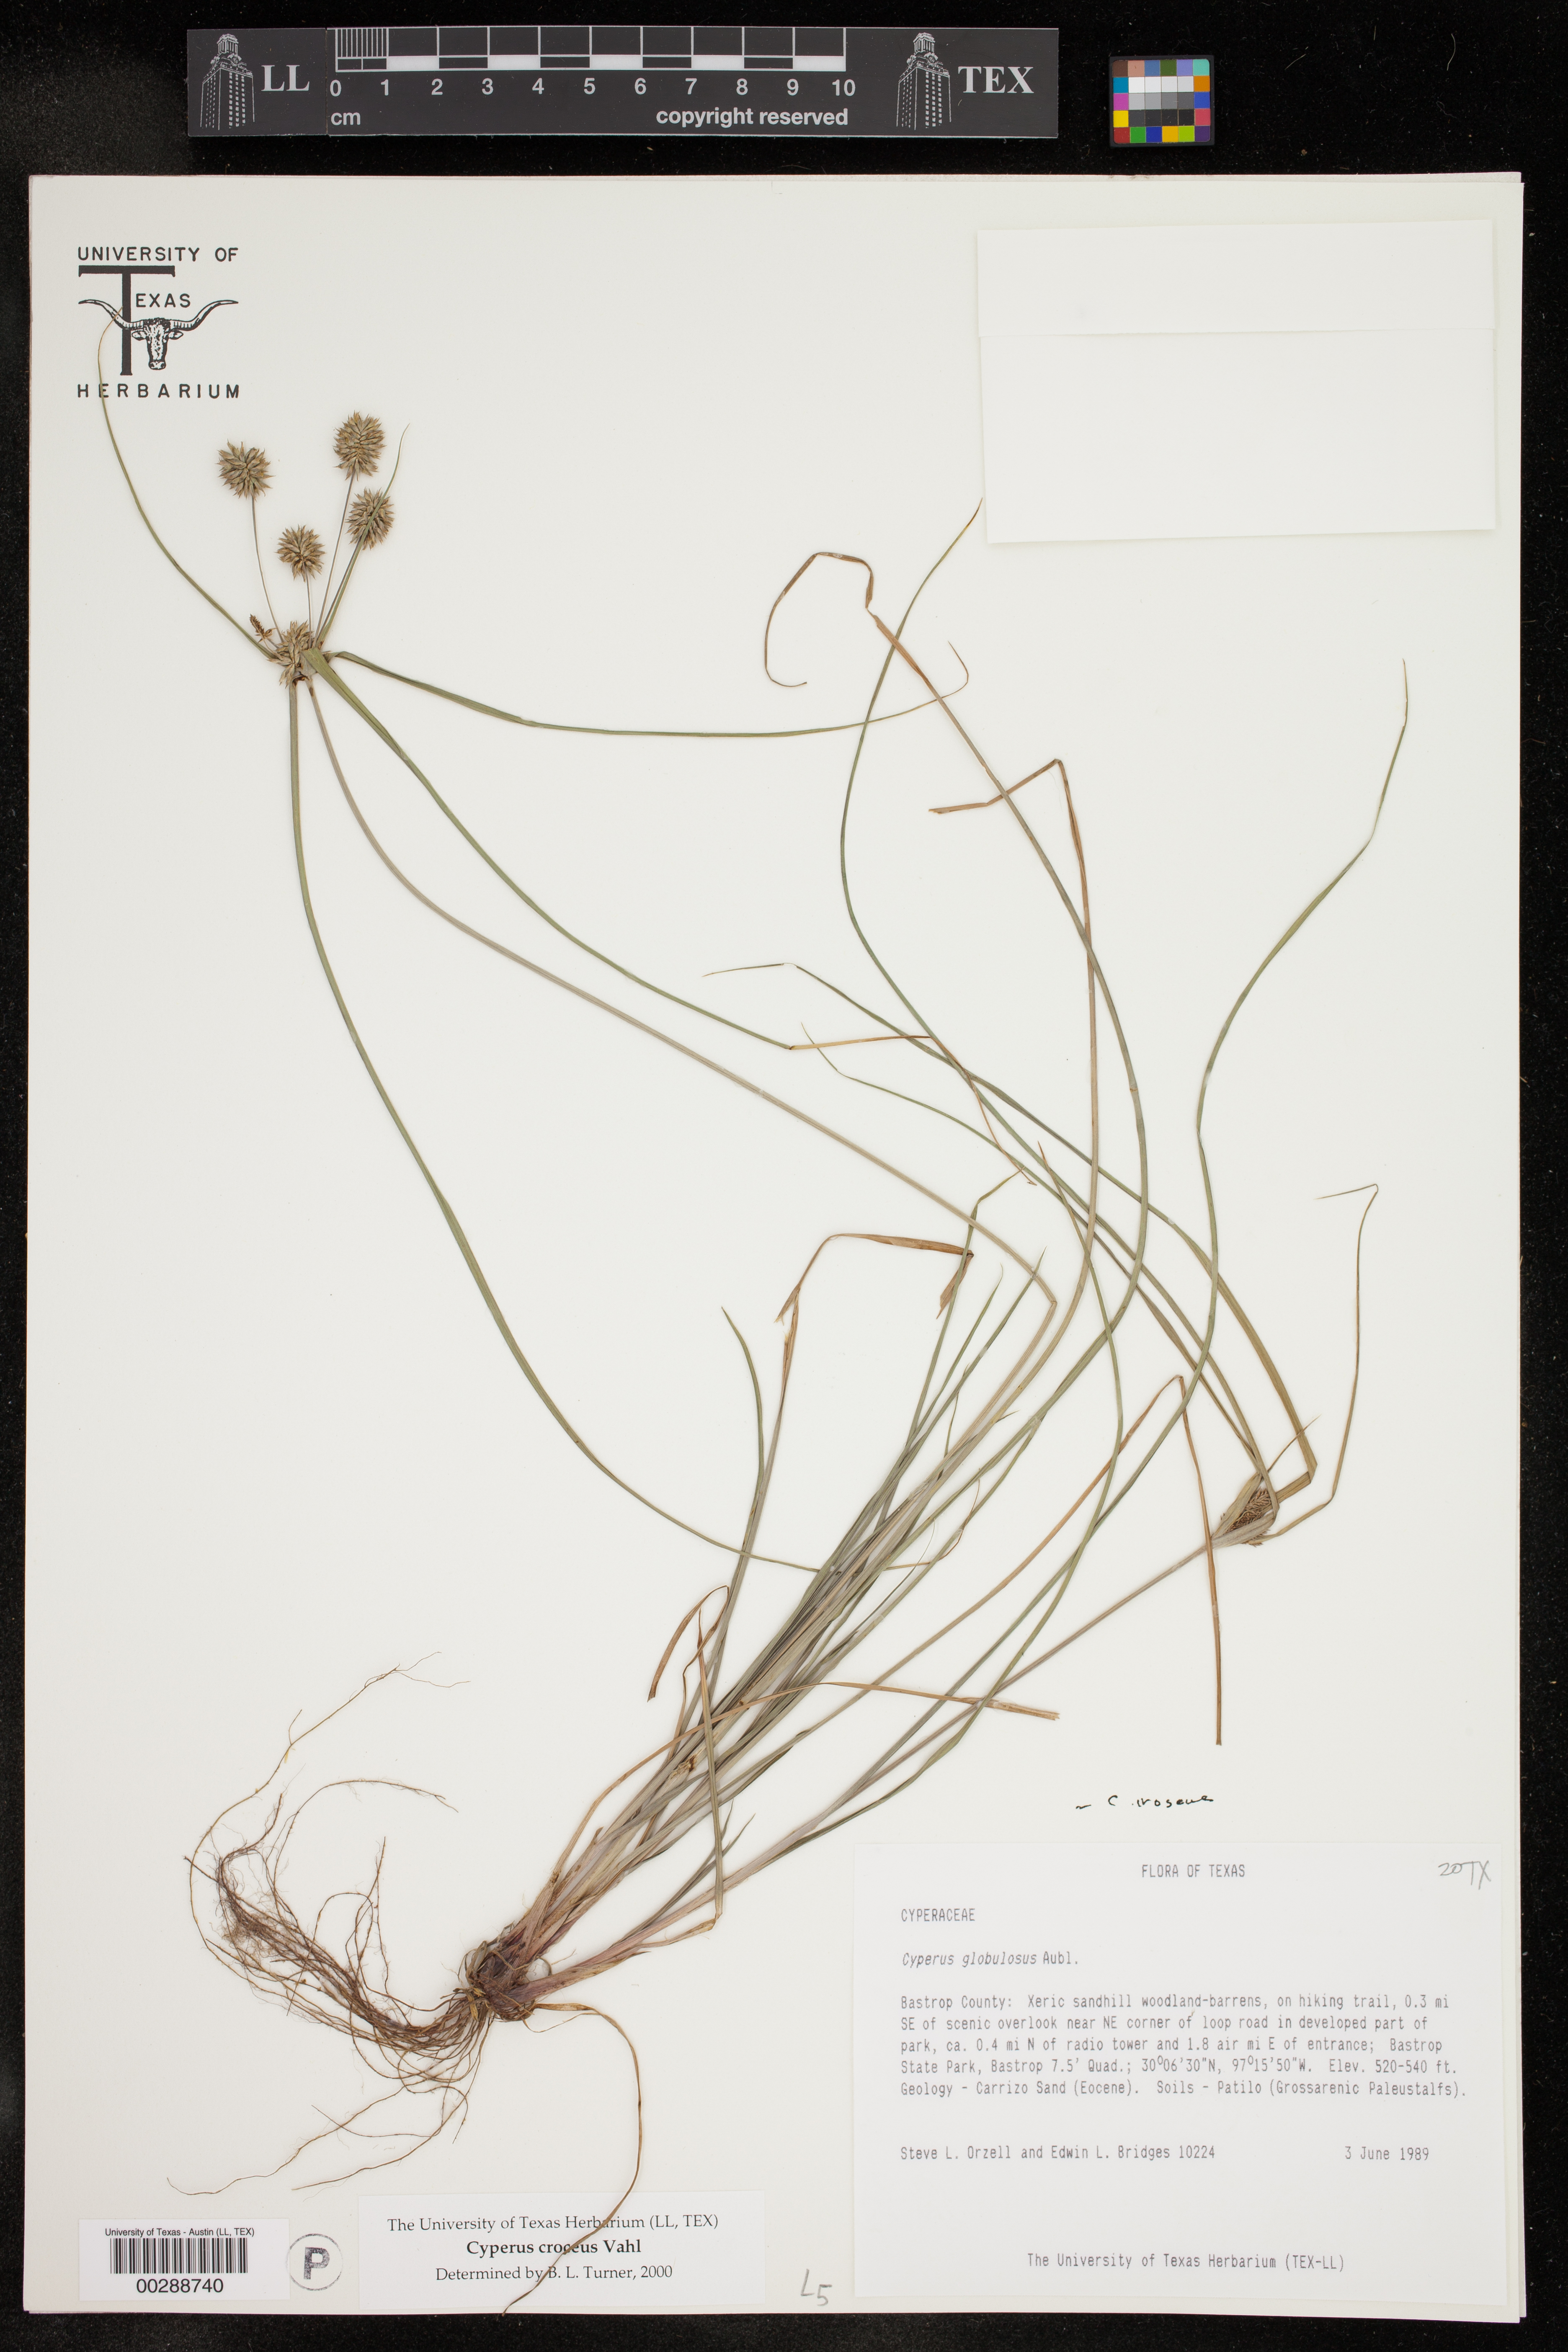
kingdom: Plantae
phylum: Tracheophyta
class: Liliopsida
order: Poales
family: Cyperaceae
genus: Cyperus
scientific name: Cyperus croceus
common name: Baldwin's flatsedge
